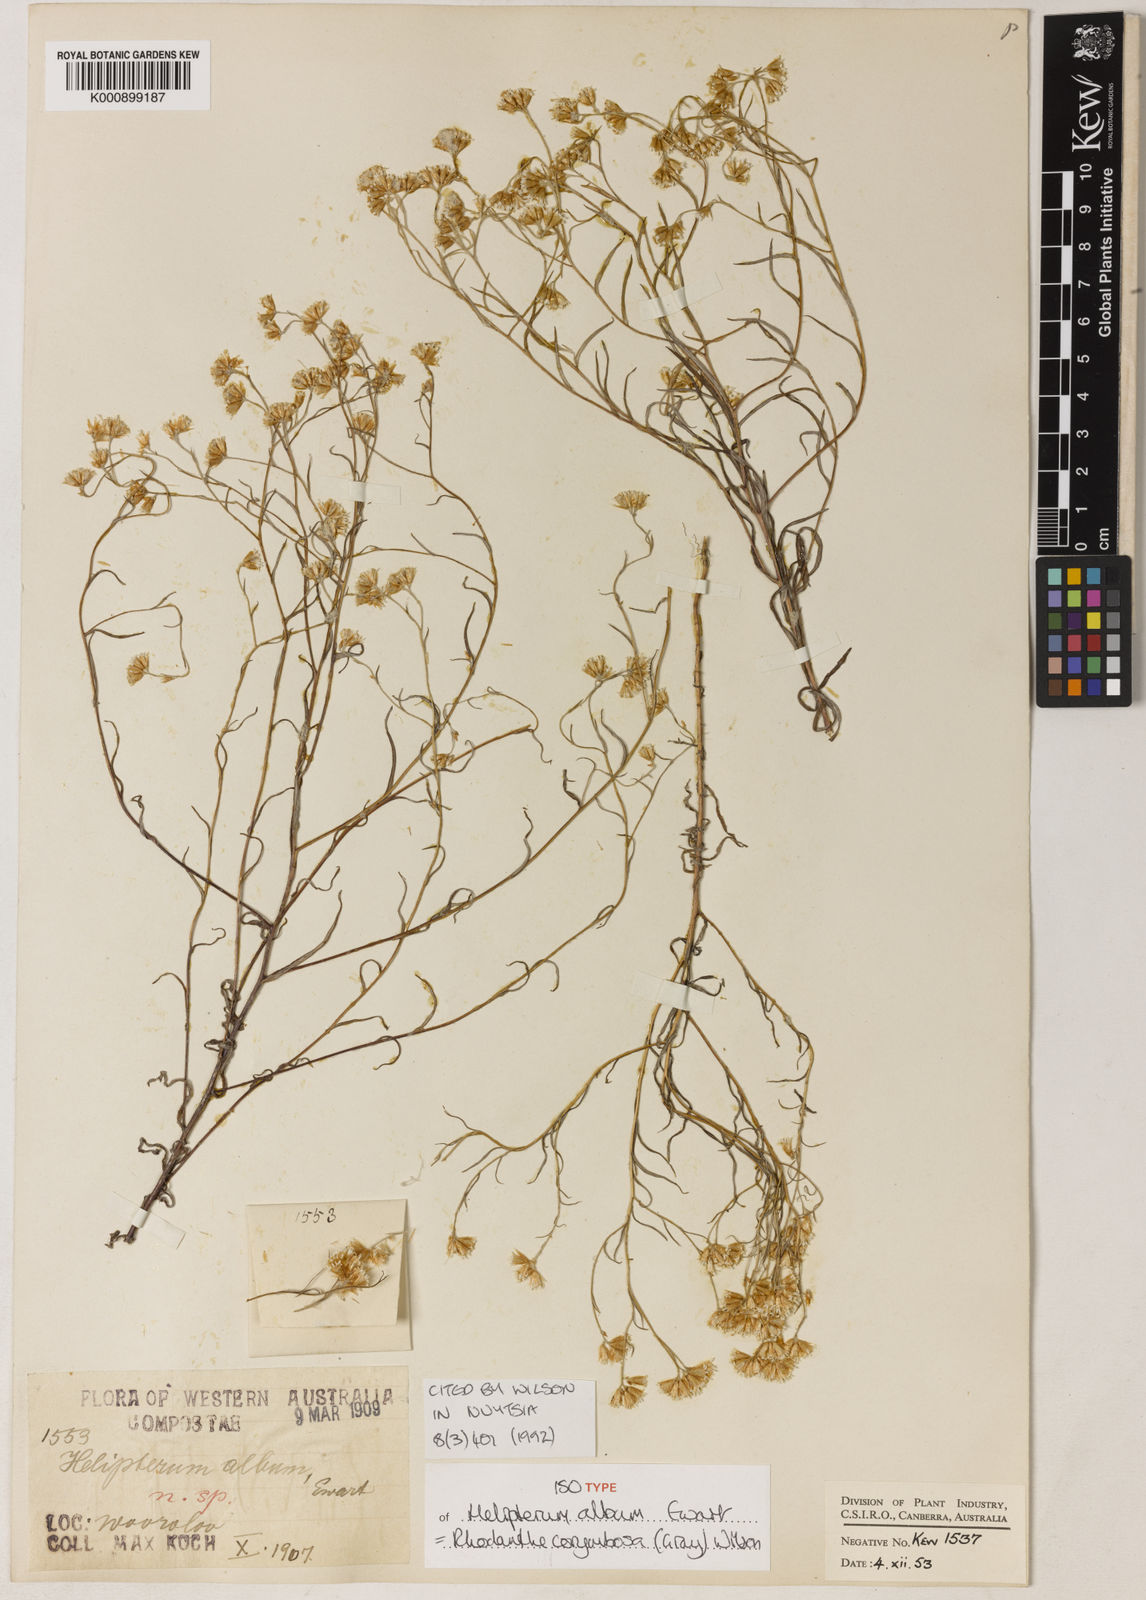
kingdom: Plantae
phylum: Tracheophyta
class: Magnoliopsida
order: Asterales
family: Asteraceae
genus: Rhodanthe
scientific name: Rhodanthe corymbosa
